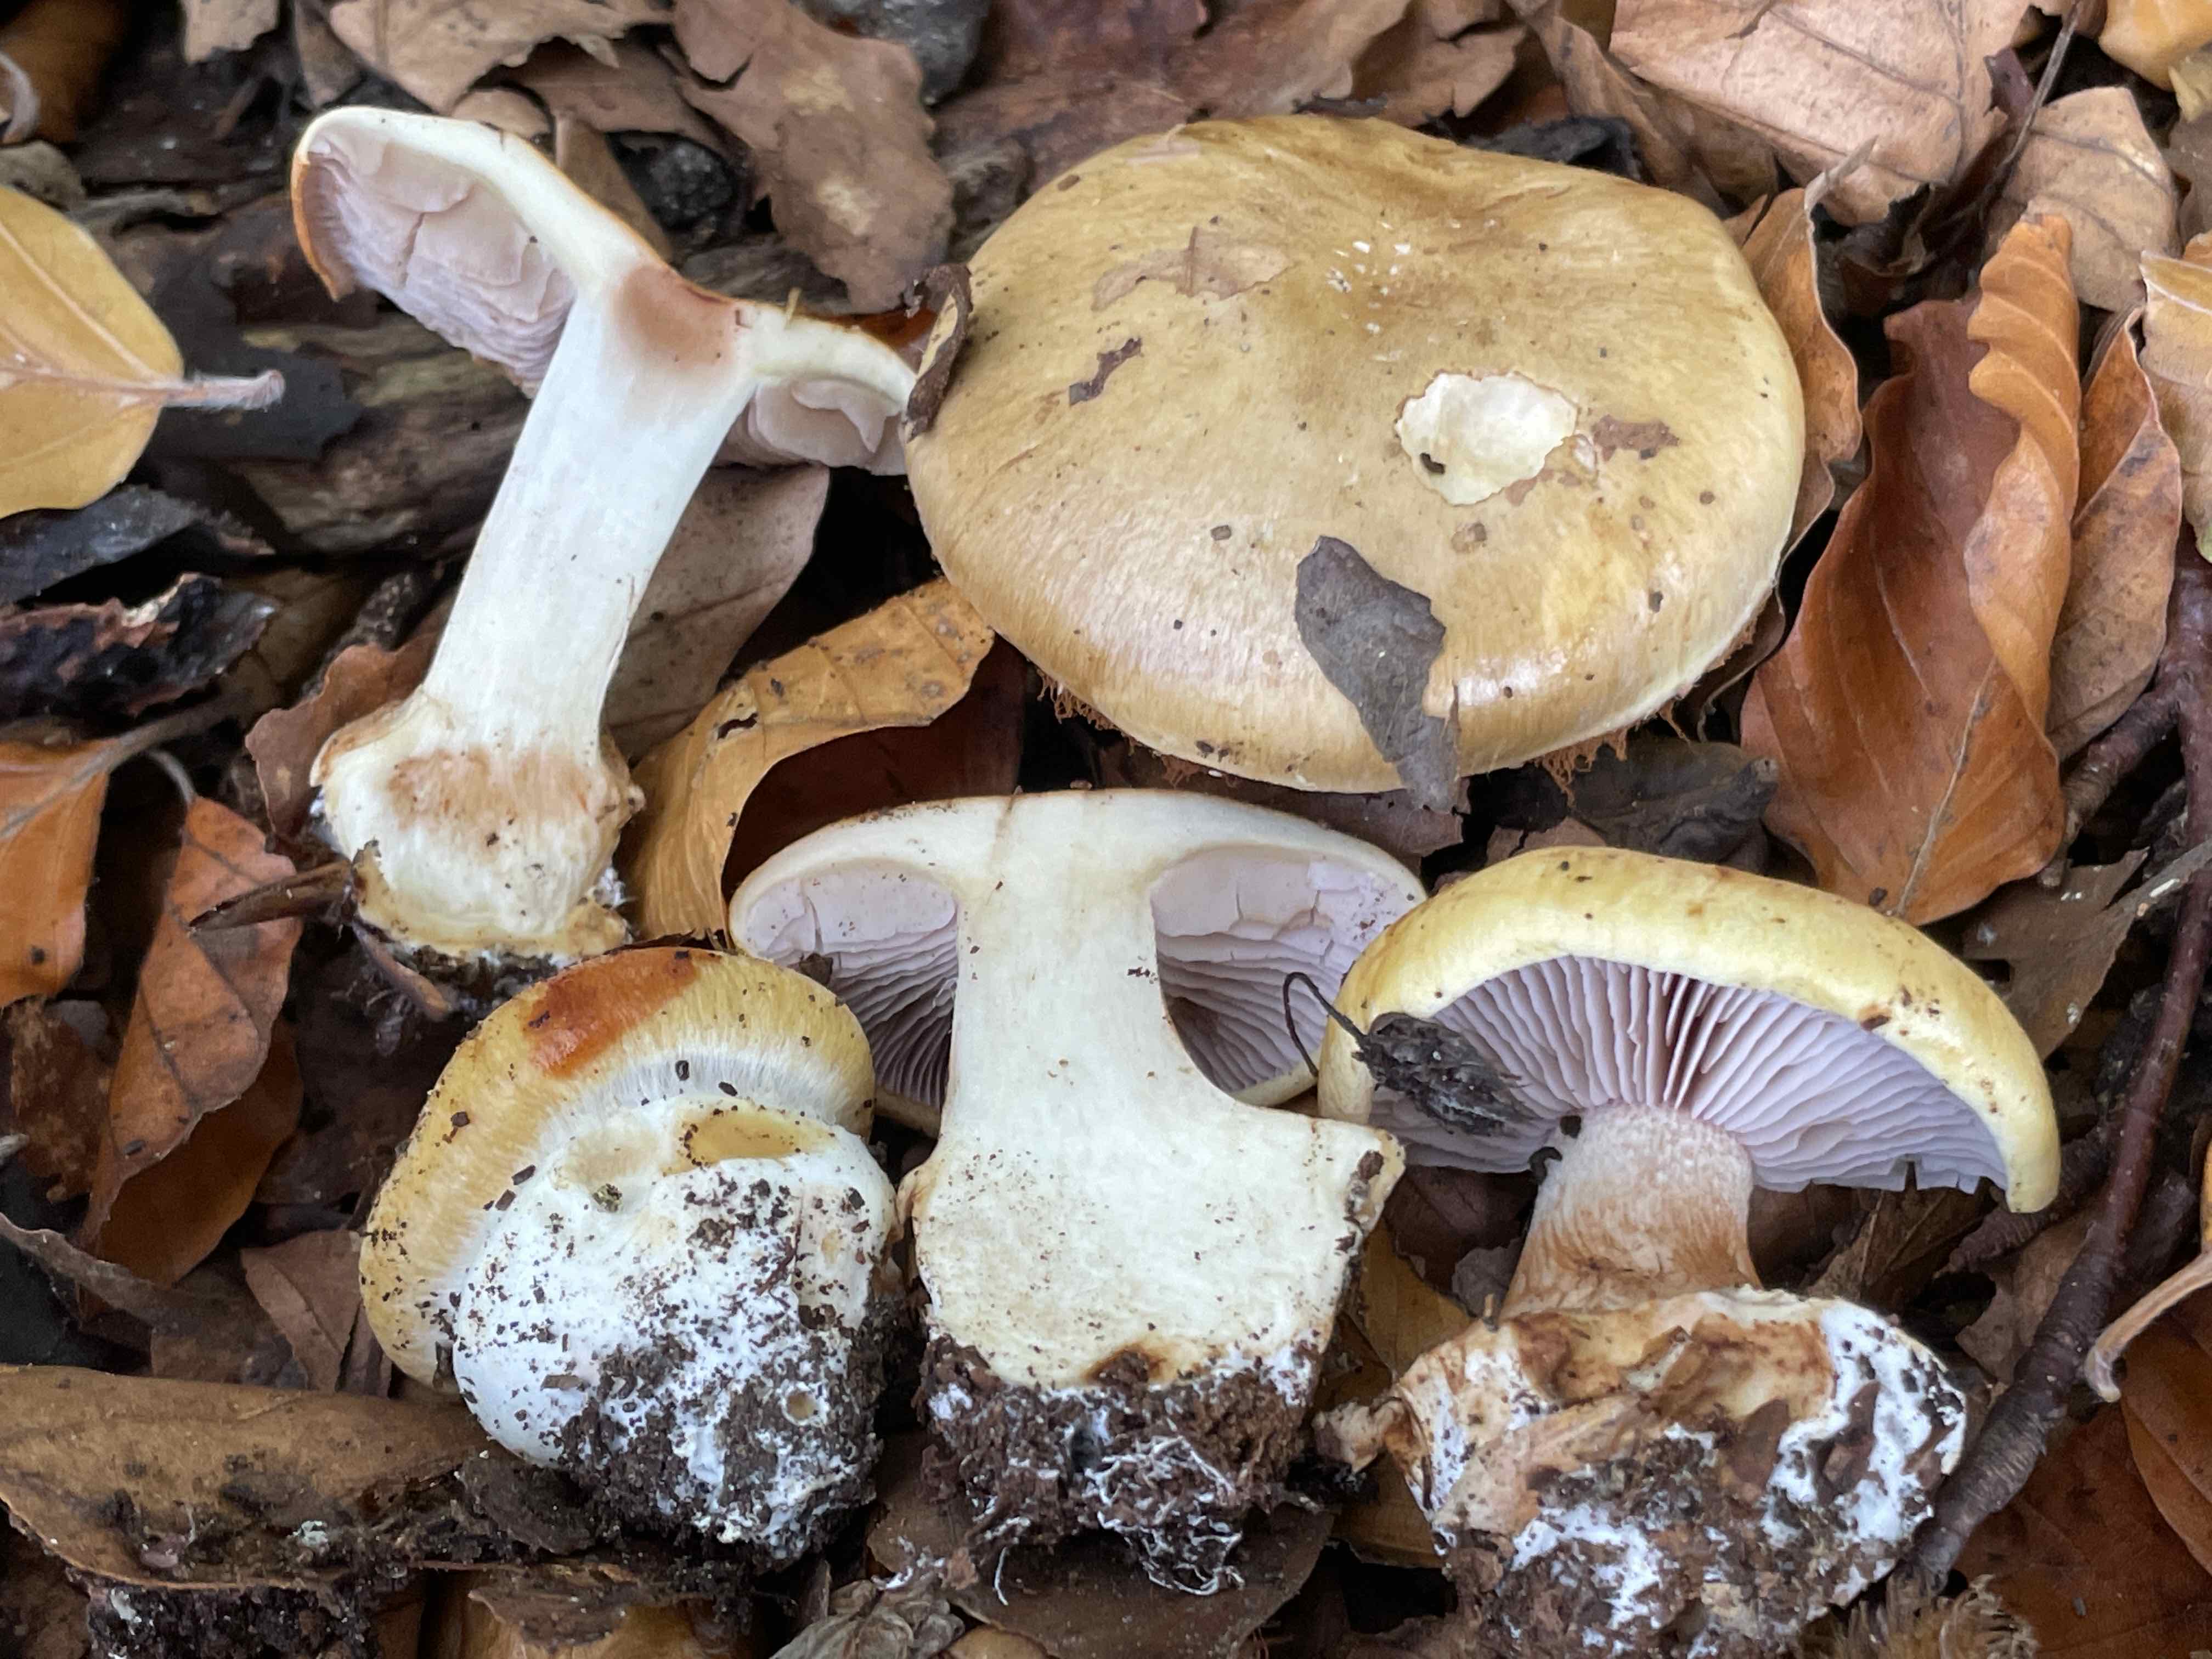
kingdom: Fungi
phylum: Basidiomycota
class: Agaricomycetes
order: Agaricales
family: Cortinariaceae
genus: Phlegmacium
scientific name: Phlegmacium caesiocortinatum
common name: rundsporet slørhat
